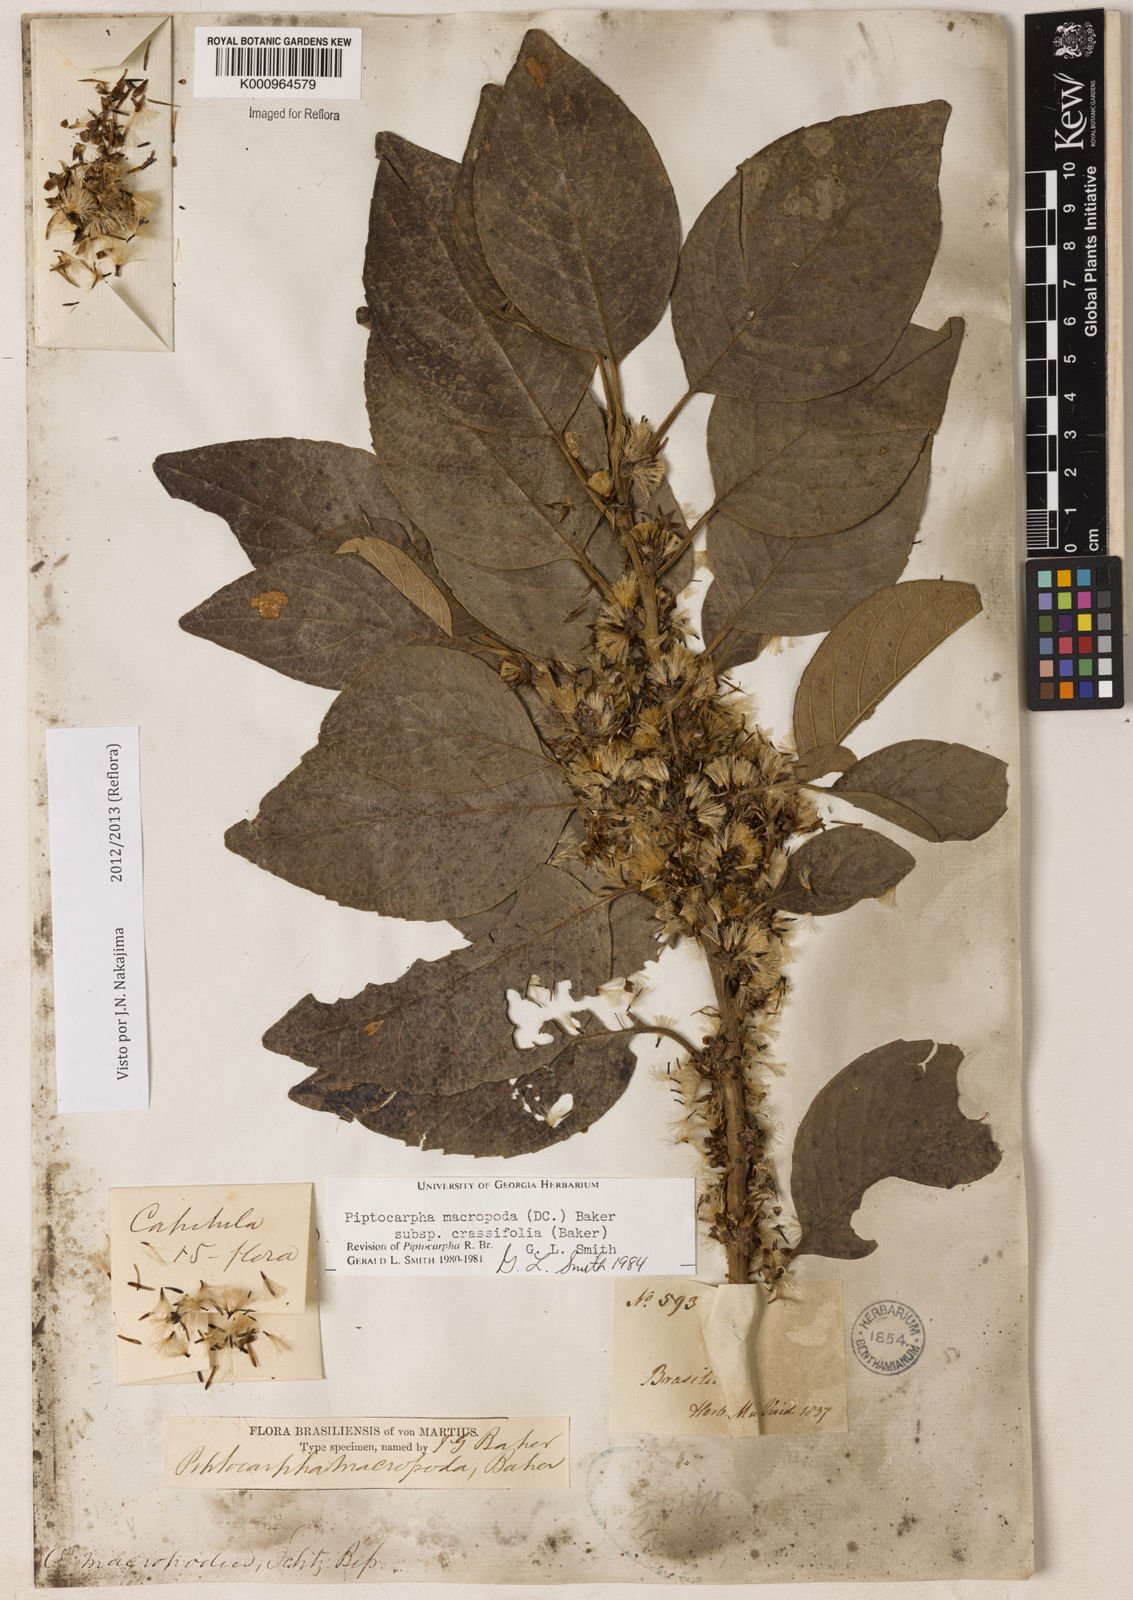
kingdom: Plantae
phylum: Tracheophyta
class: Magnoliopsida
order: Asterales
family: Asteraceae
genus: Piptocarpha
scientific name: Piptocarpha macropoda
